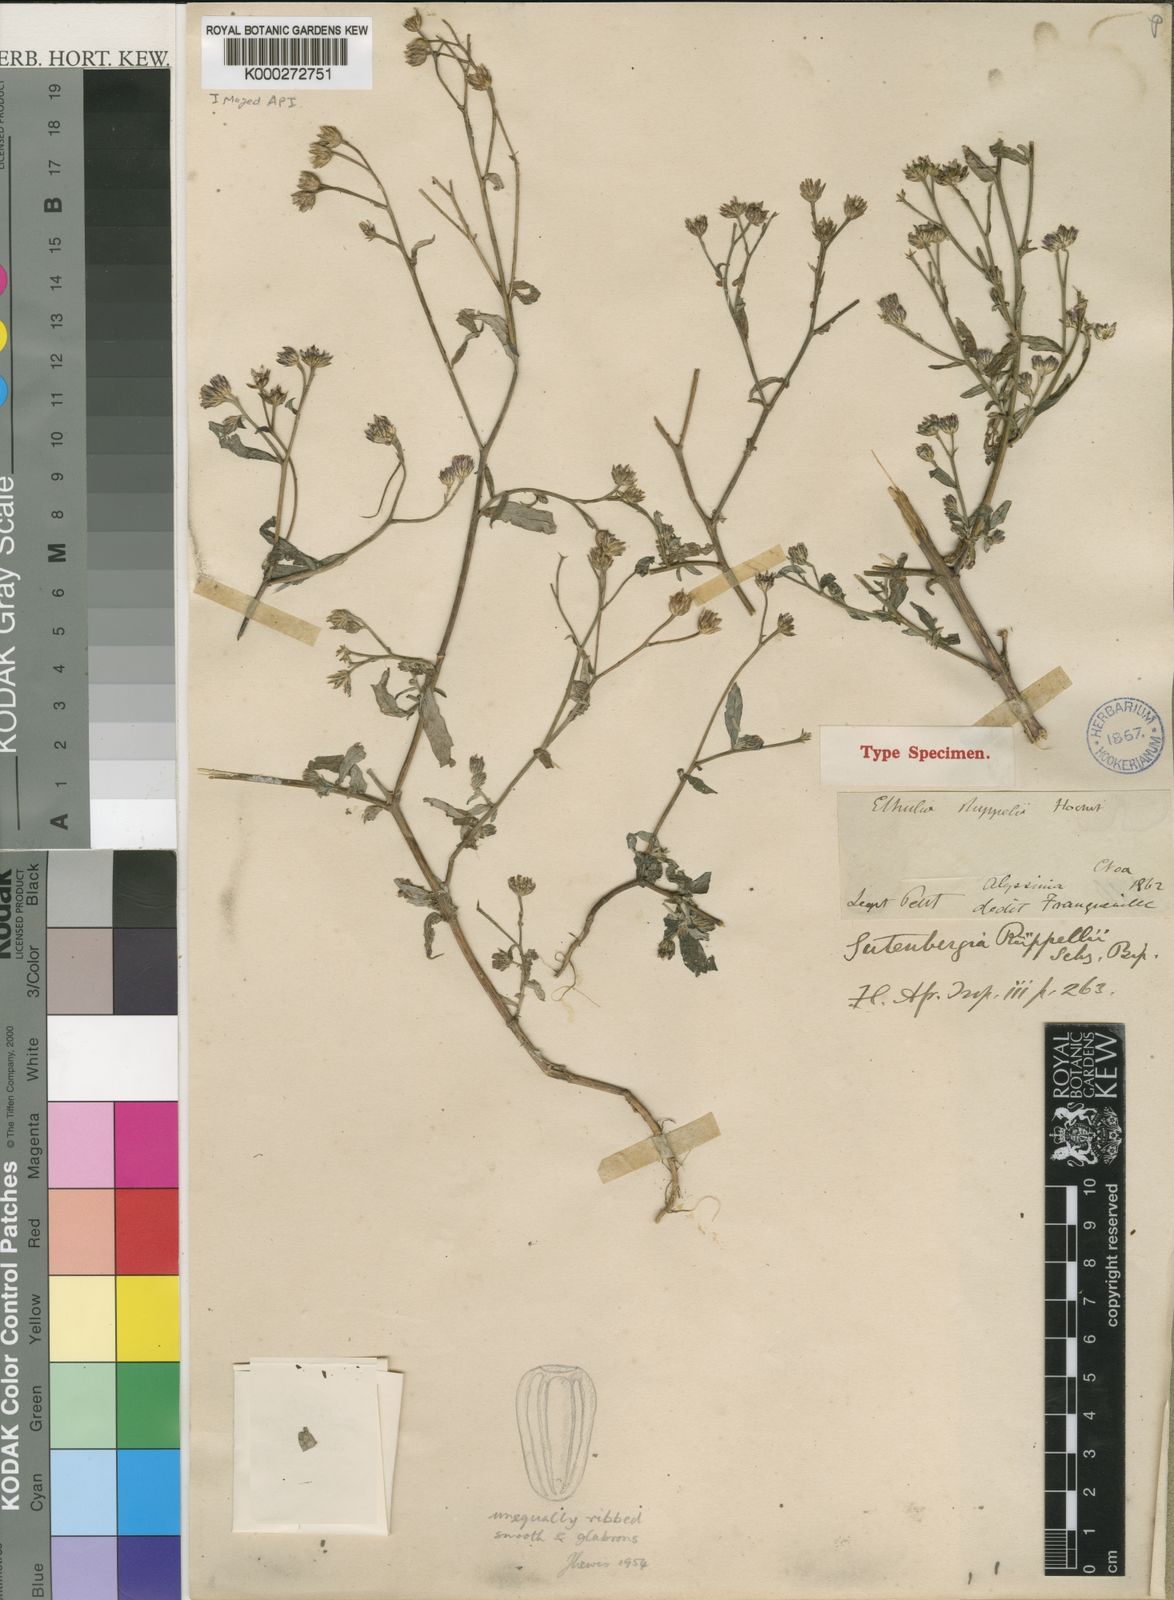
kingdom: Plantae
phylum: Tracheophyta
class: Magnoliopsida
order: Asterales
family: Asteraceae
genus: Gutenbergia
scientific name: Gutenbergia rueppellii
